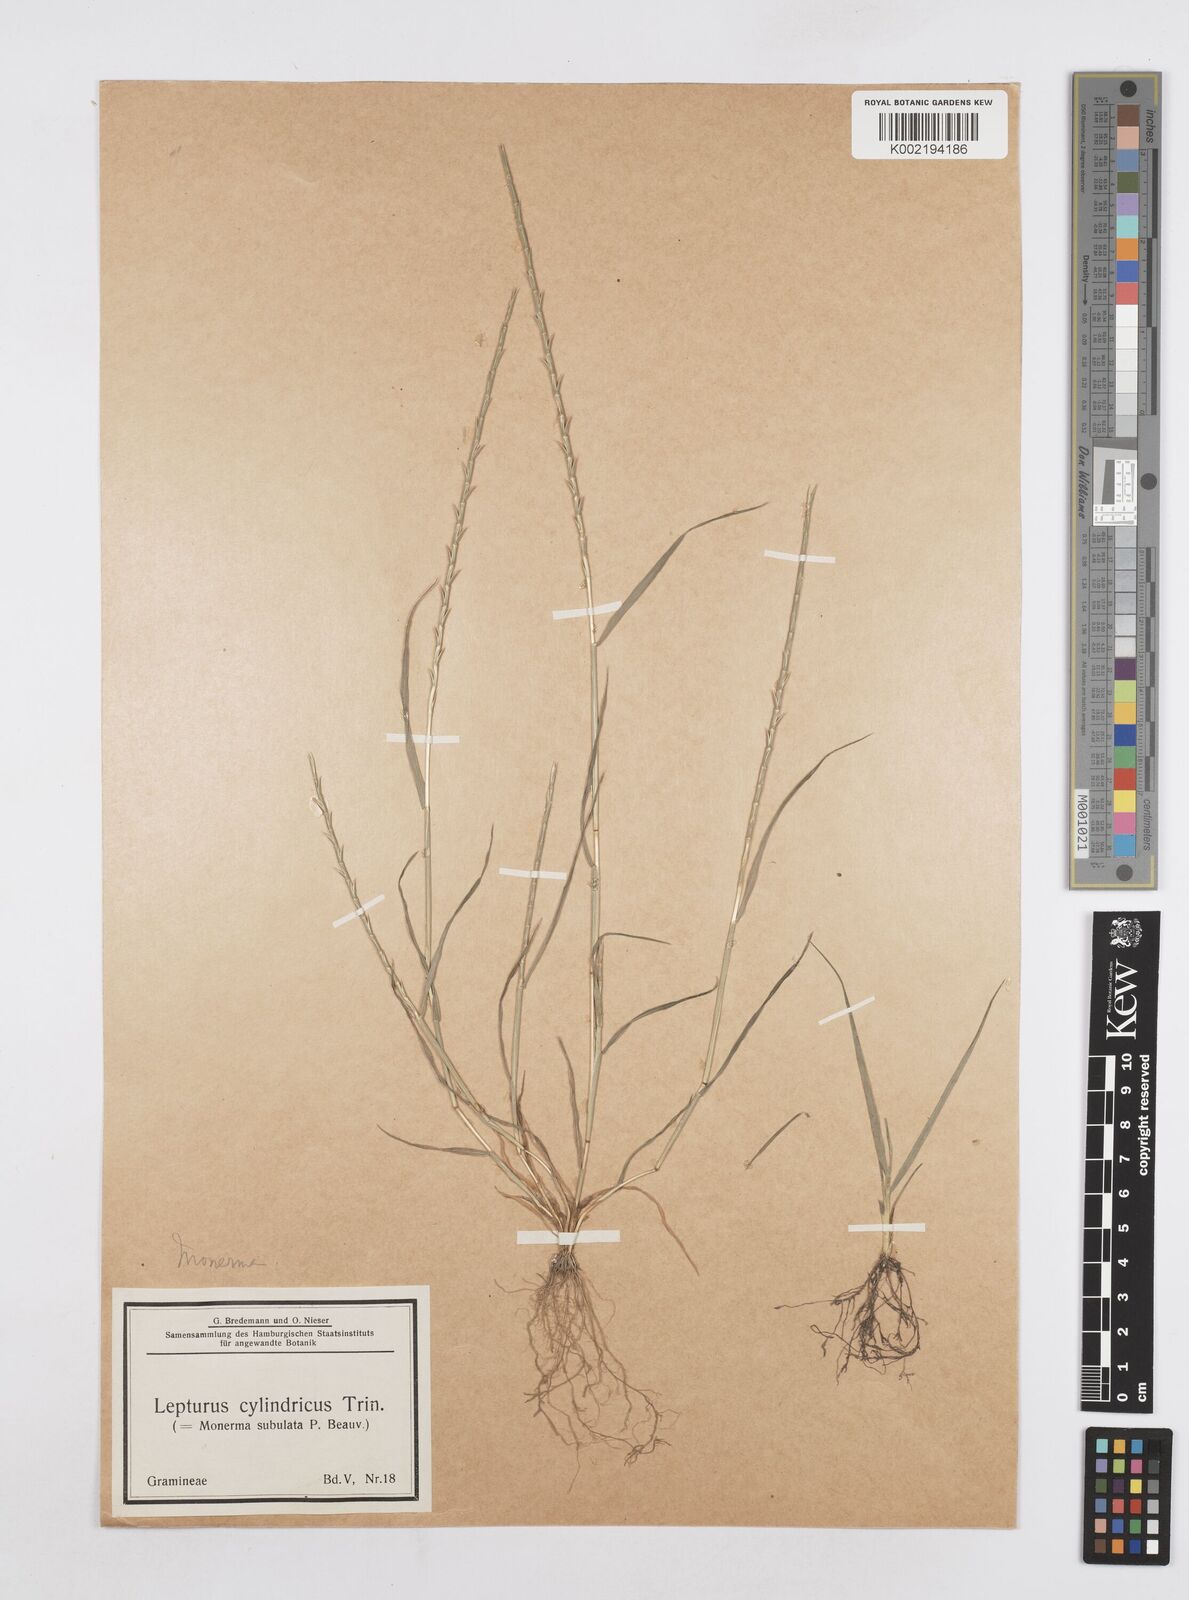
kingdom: Plantae
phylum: Tracheophyta
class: Liliopsida
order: Poales
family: Poaceae
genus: Parapholis
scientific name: Parapholis cylindrica
